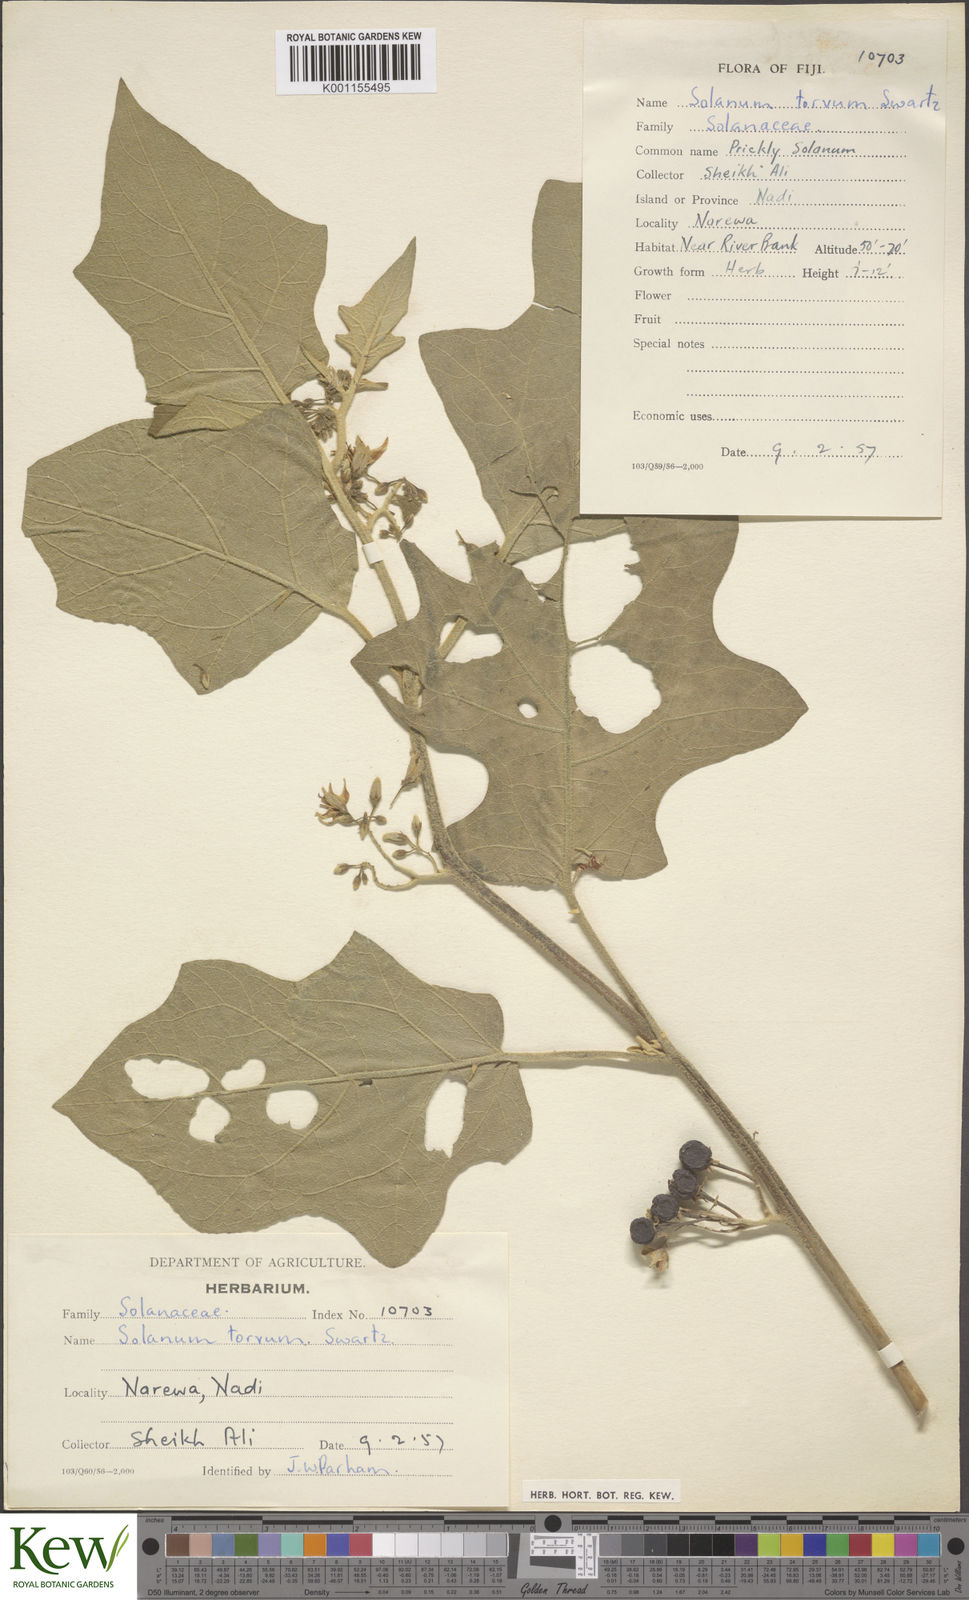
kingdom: Plantae
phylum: Tracheophyta
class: Magnoliopsida
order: Solanales
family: Solanaceae
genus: Solanum
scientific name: Solanum torvum
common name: Turkey berry
